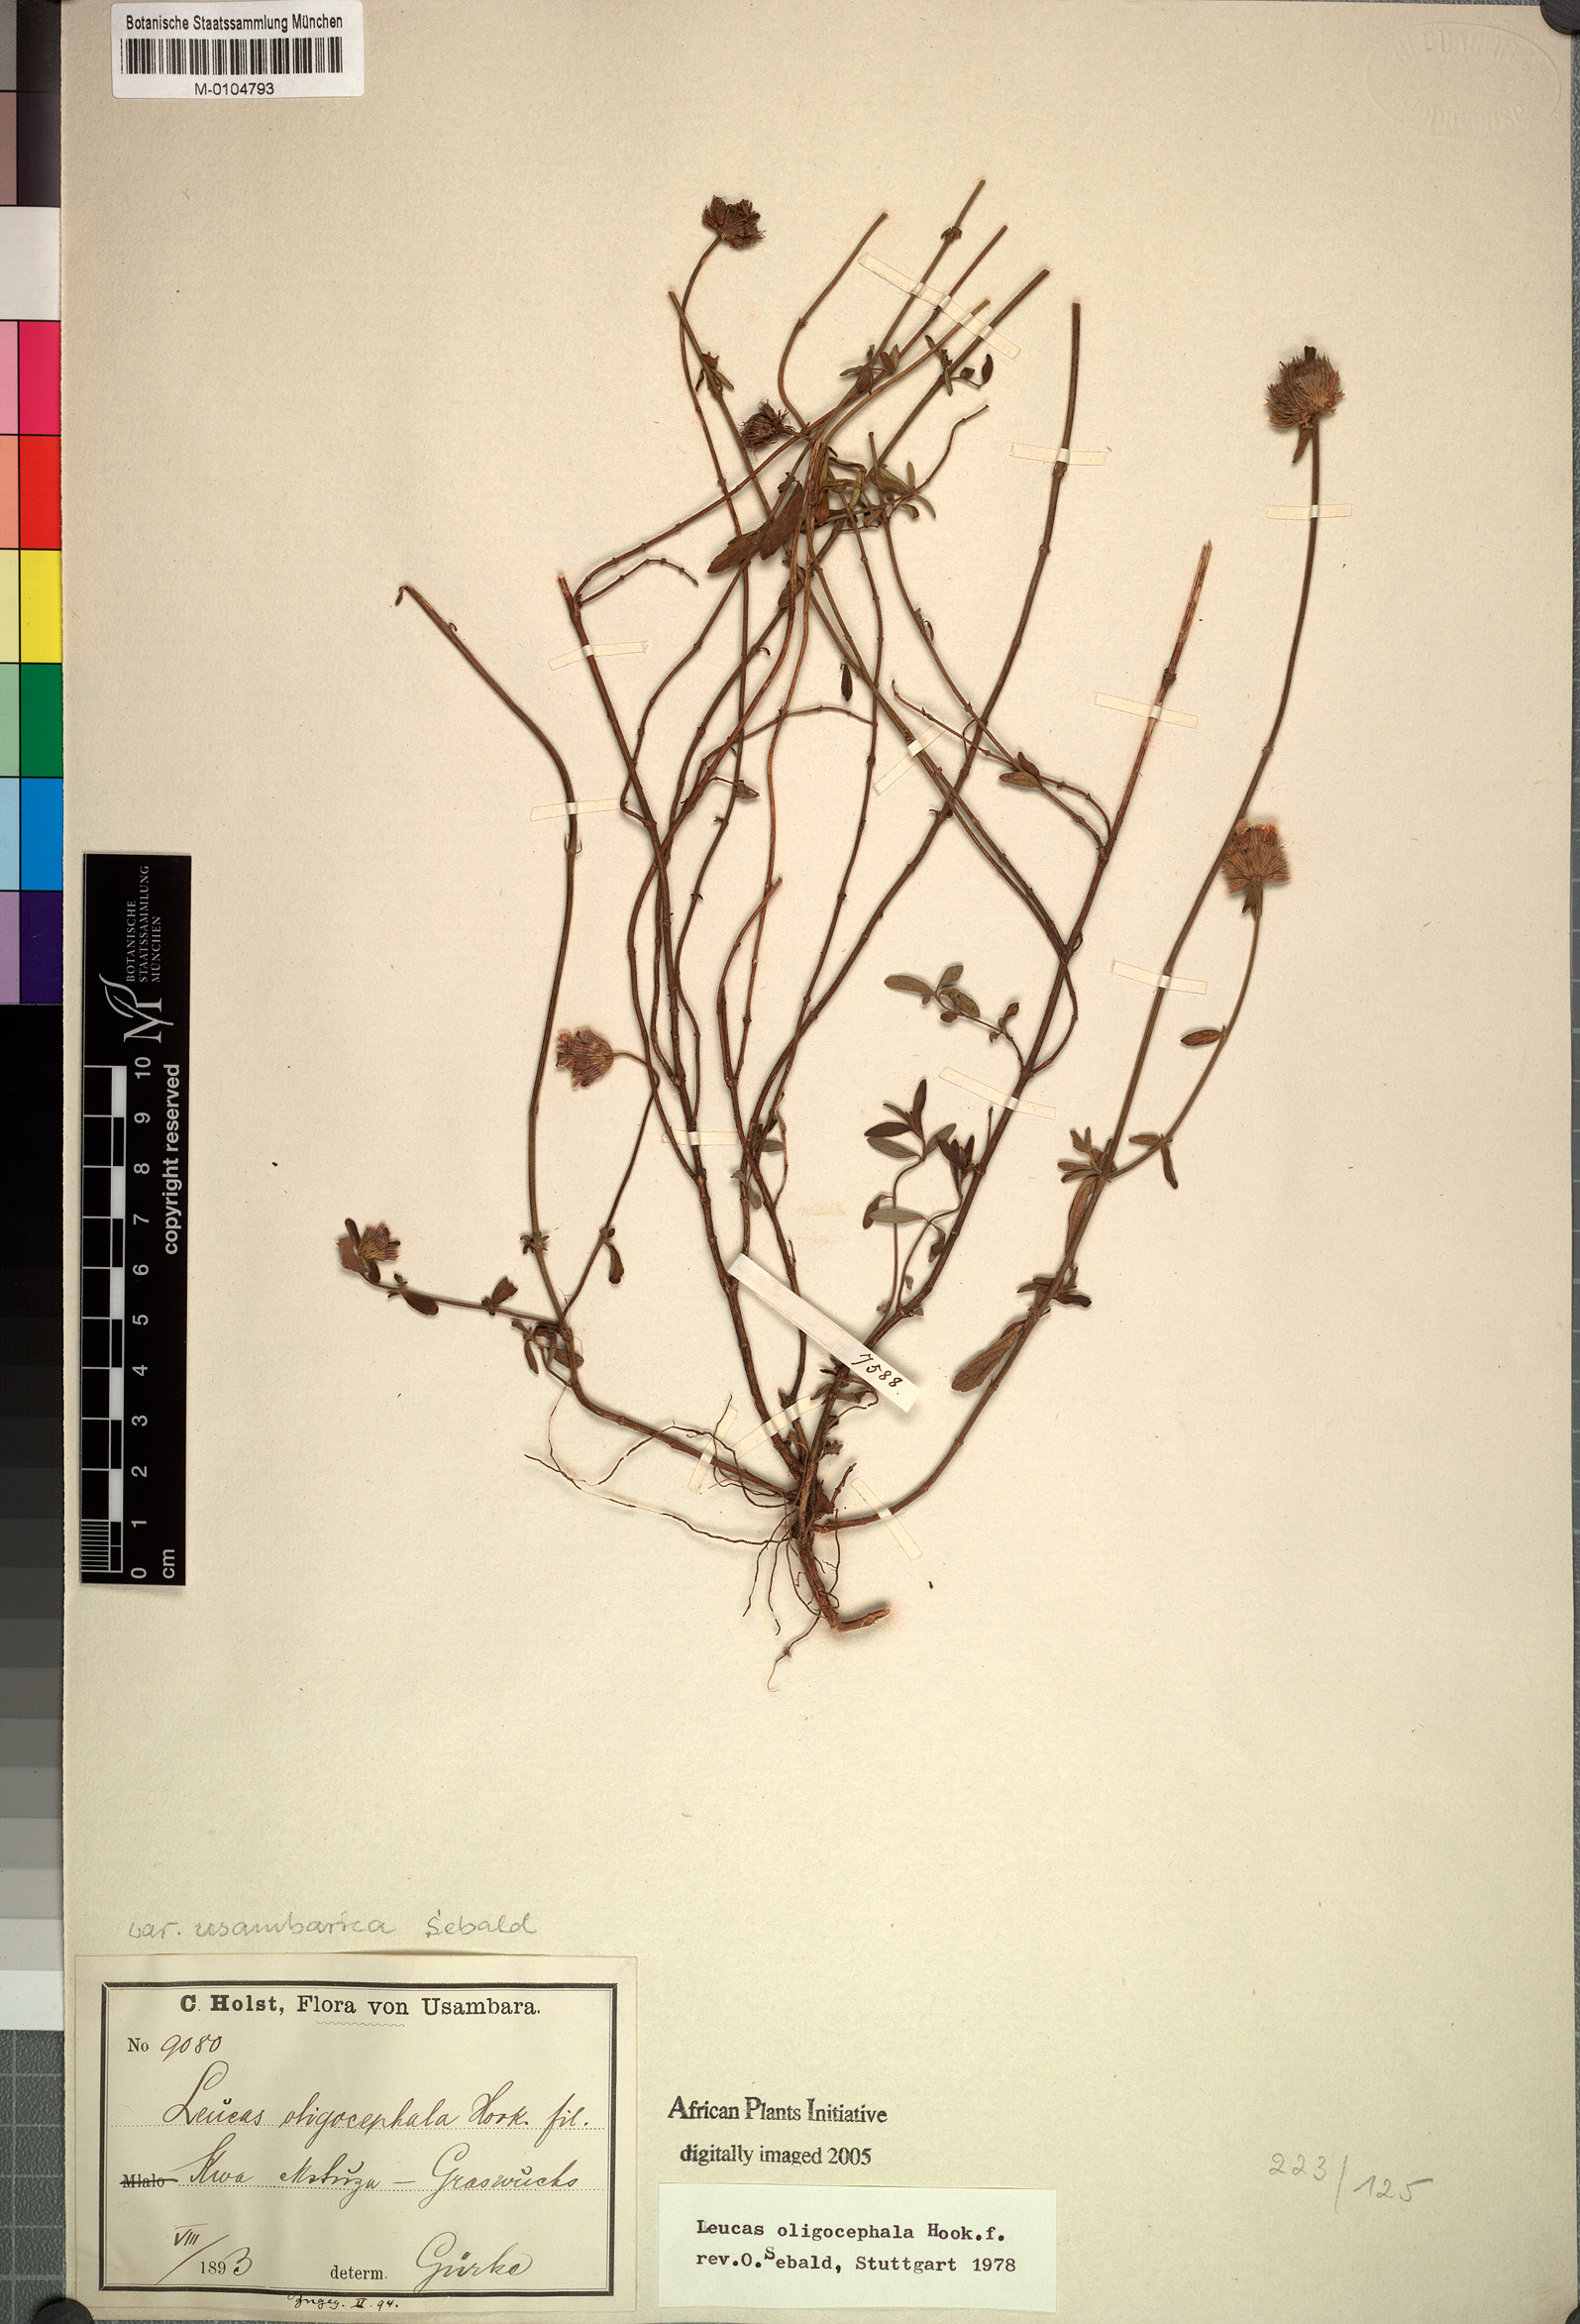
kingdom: Plantae
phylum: Tracheophyta
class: Magnoliopsida
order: Lamiales
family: Lamiaceae
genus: Leucas
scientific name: Leucas oligocephala
